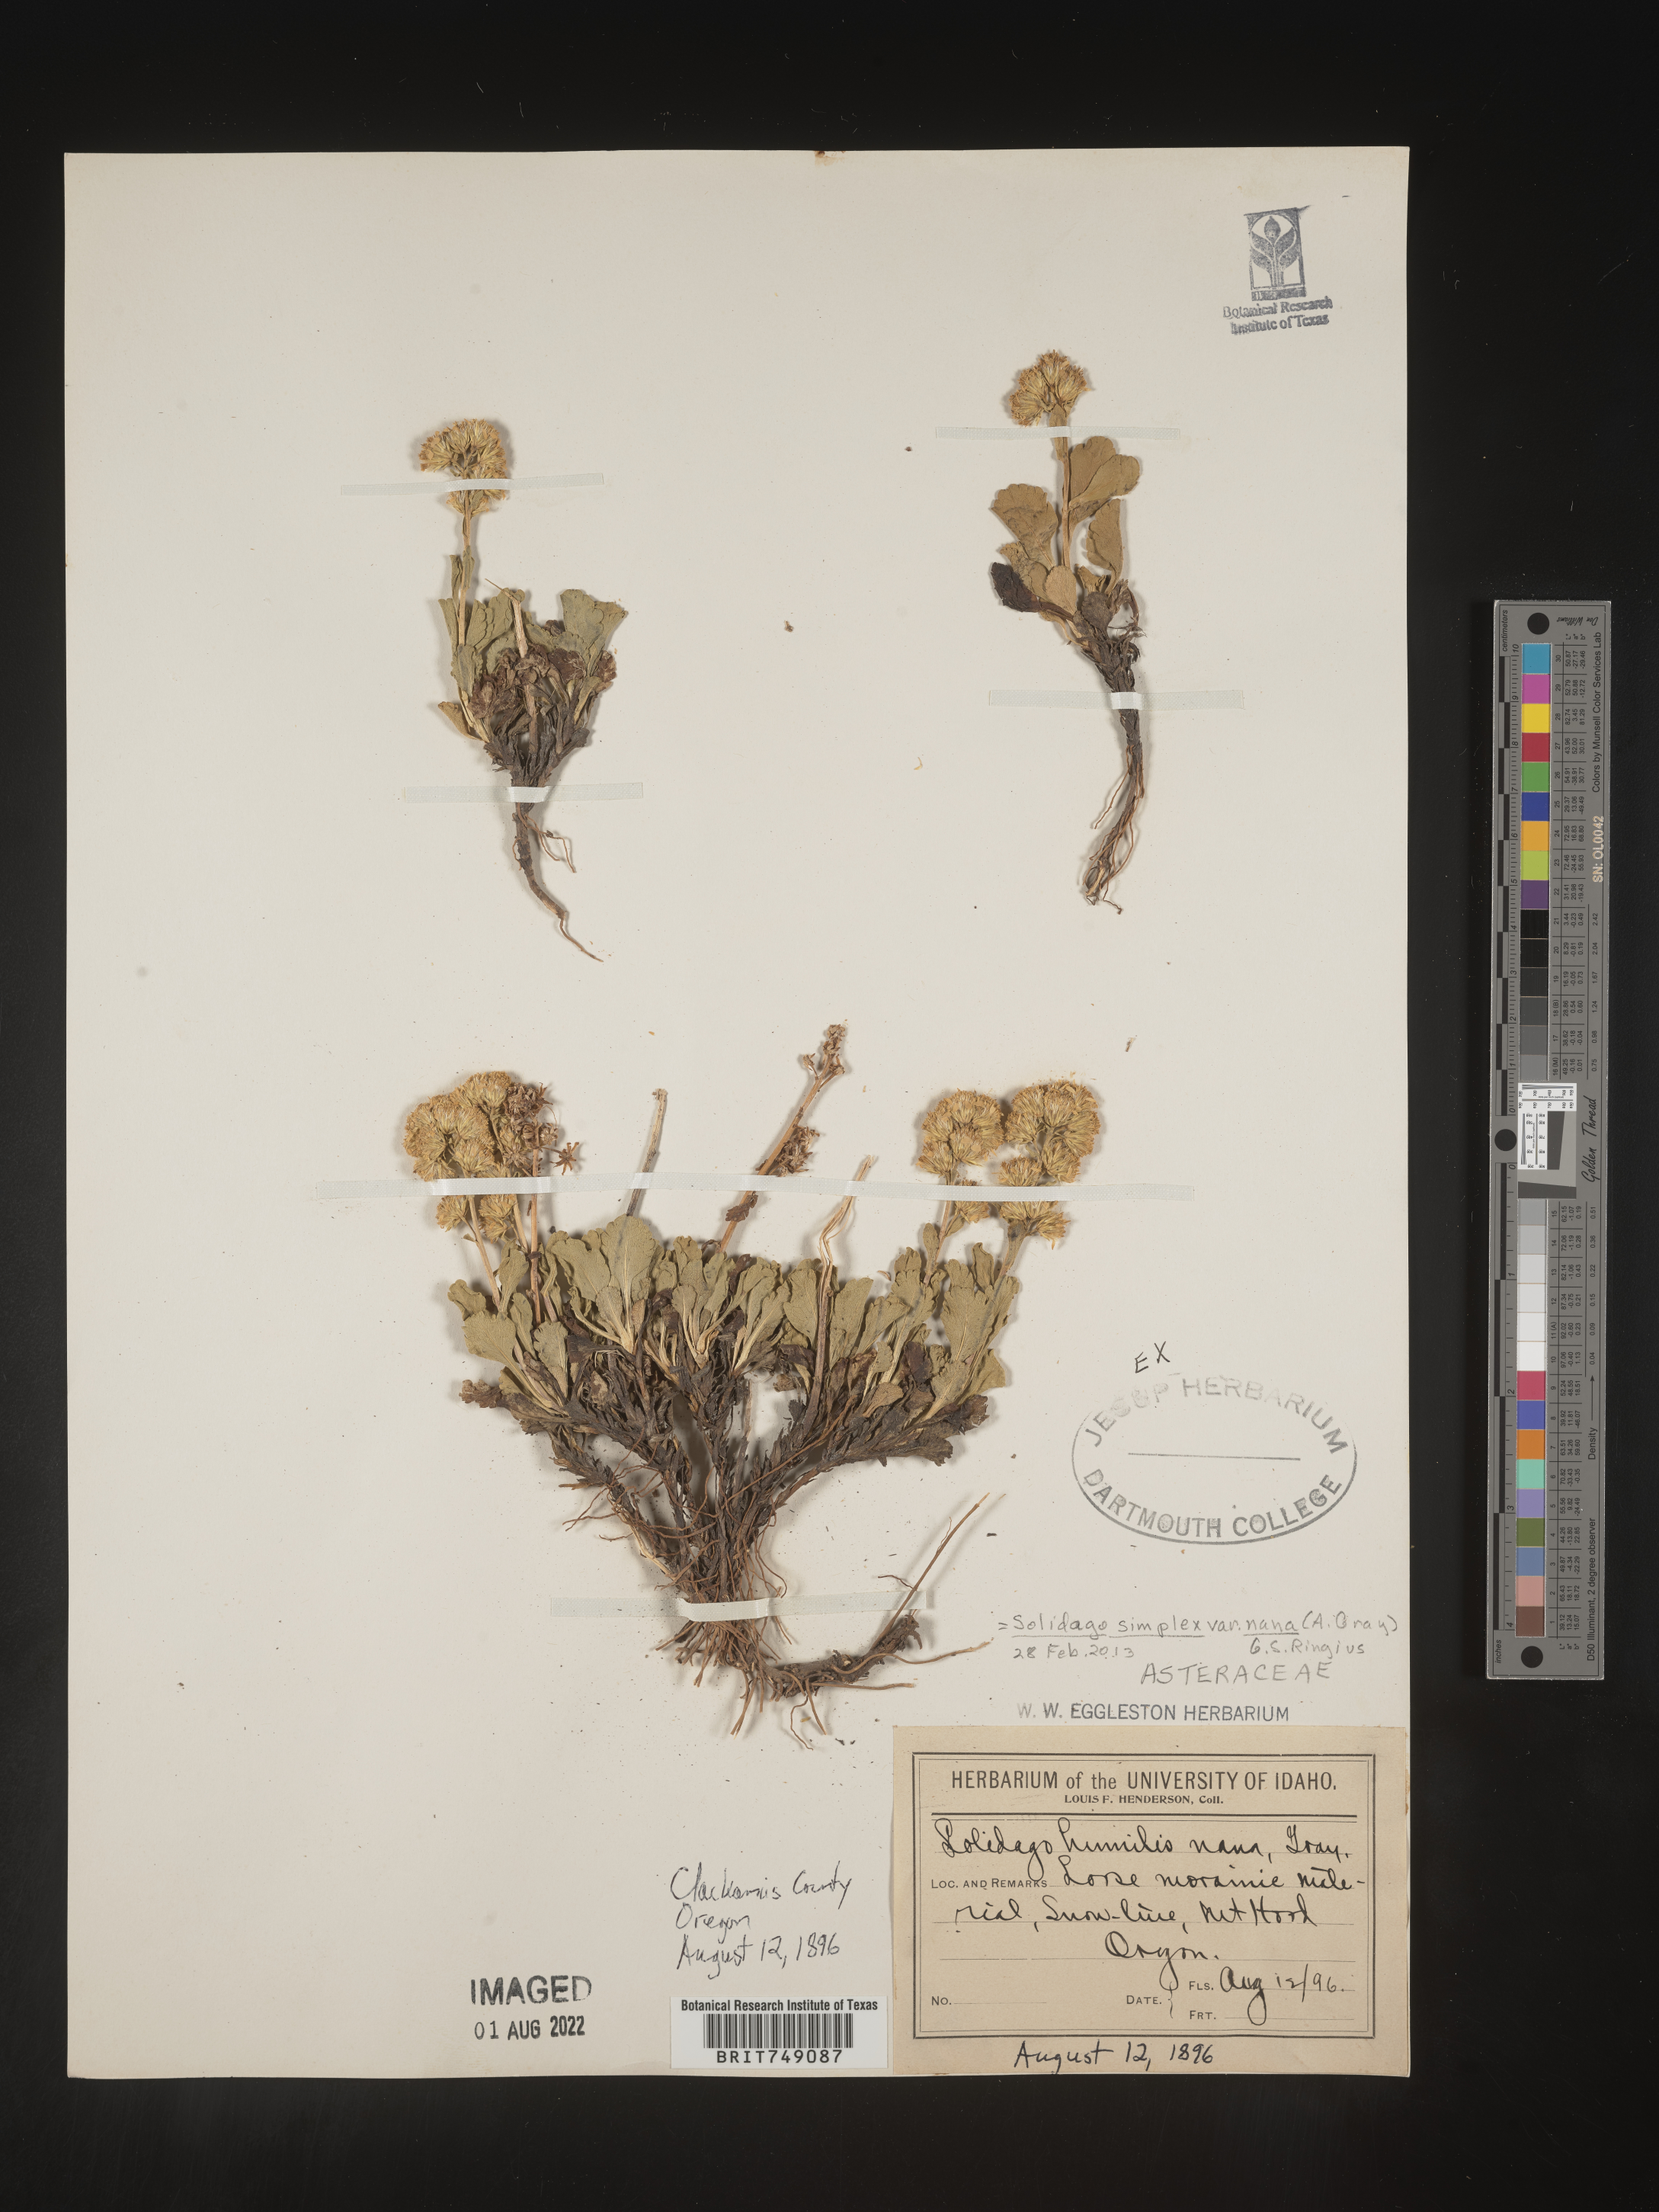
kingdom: Plantae
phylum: Tracheophyta
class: Magnoliopsida
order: Asterales
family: Asteraceae
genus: Solidago
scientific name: Solidago simplex
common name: Sticky goldenrod
